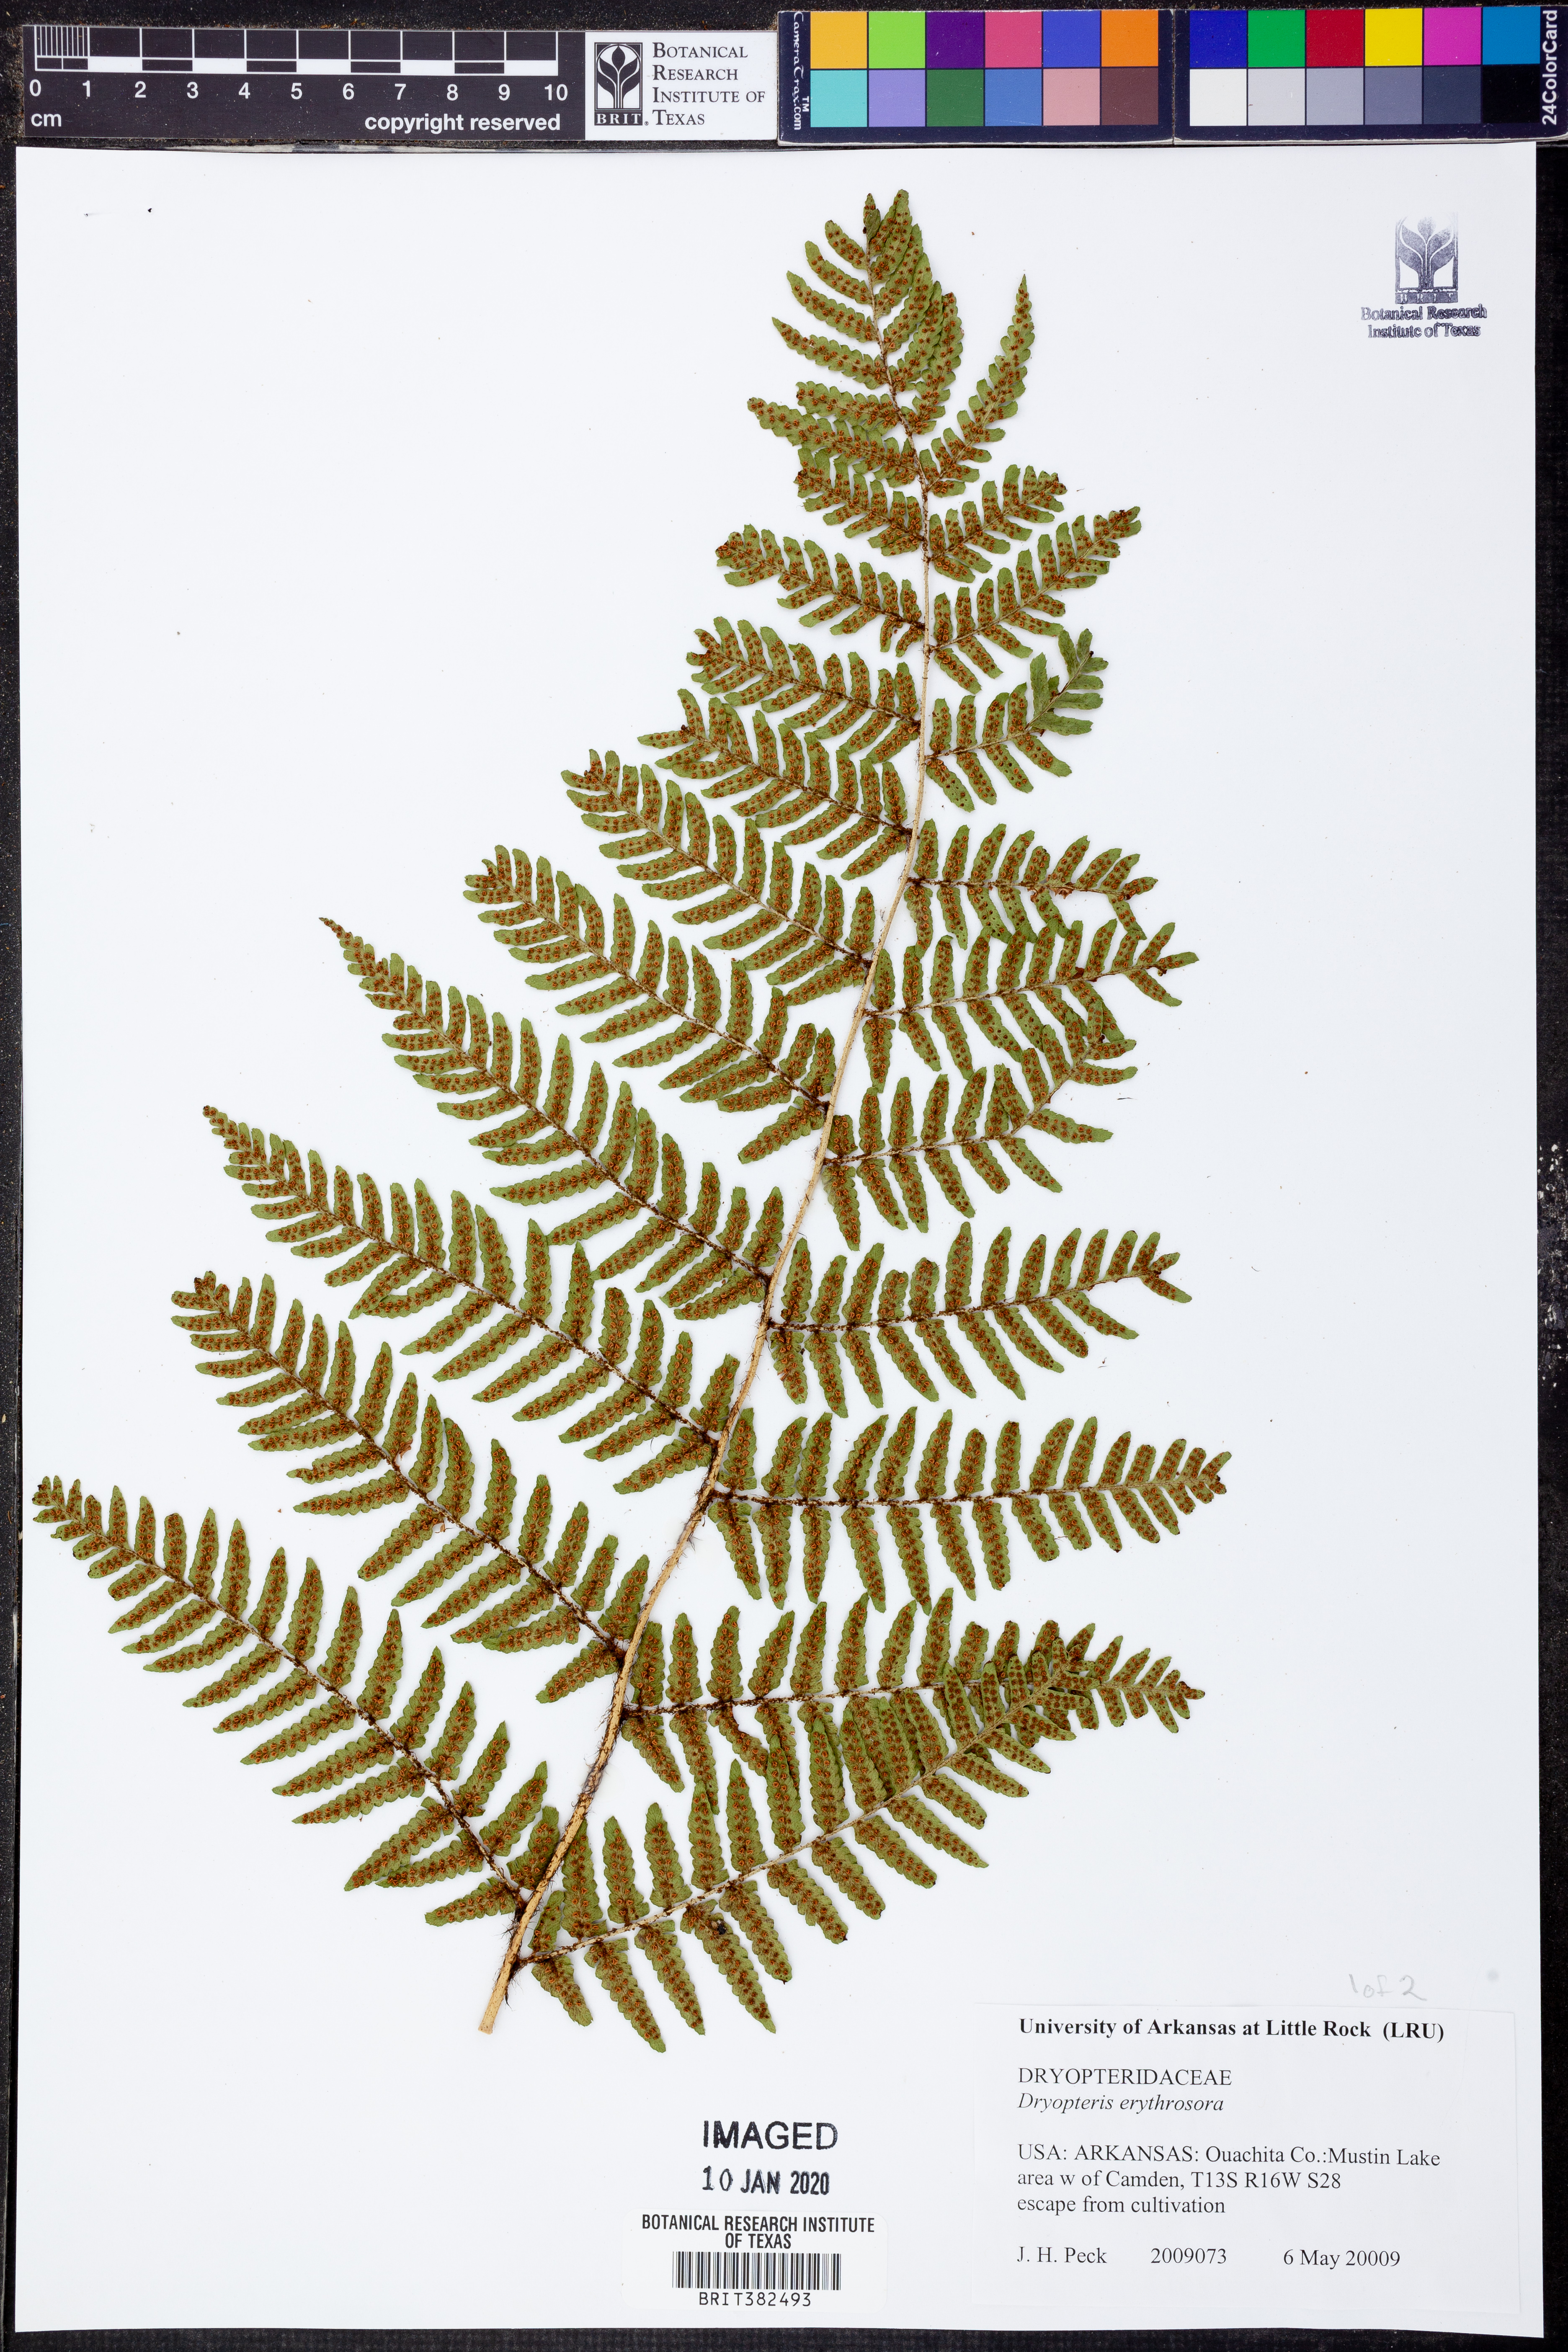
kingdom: Plantae
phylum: Tracheophyta
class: Polypodiopsida
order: Polypodiales
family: Dryopteridaceae
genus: Dryopteris
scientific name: Dryopteris erythrosora
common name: Autumn fern
